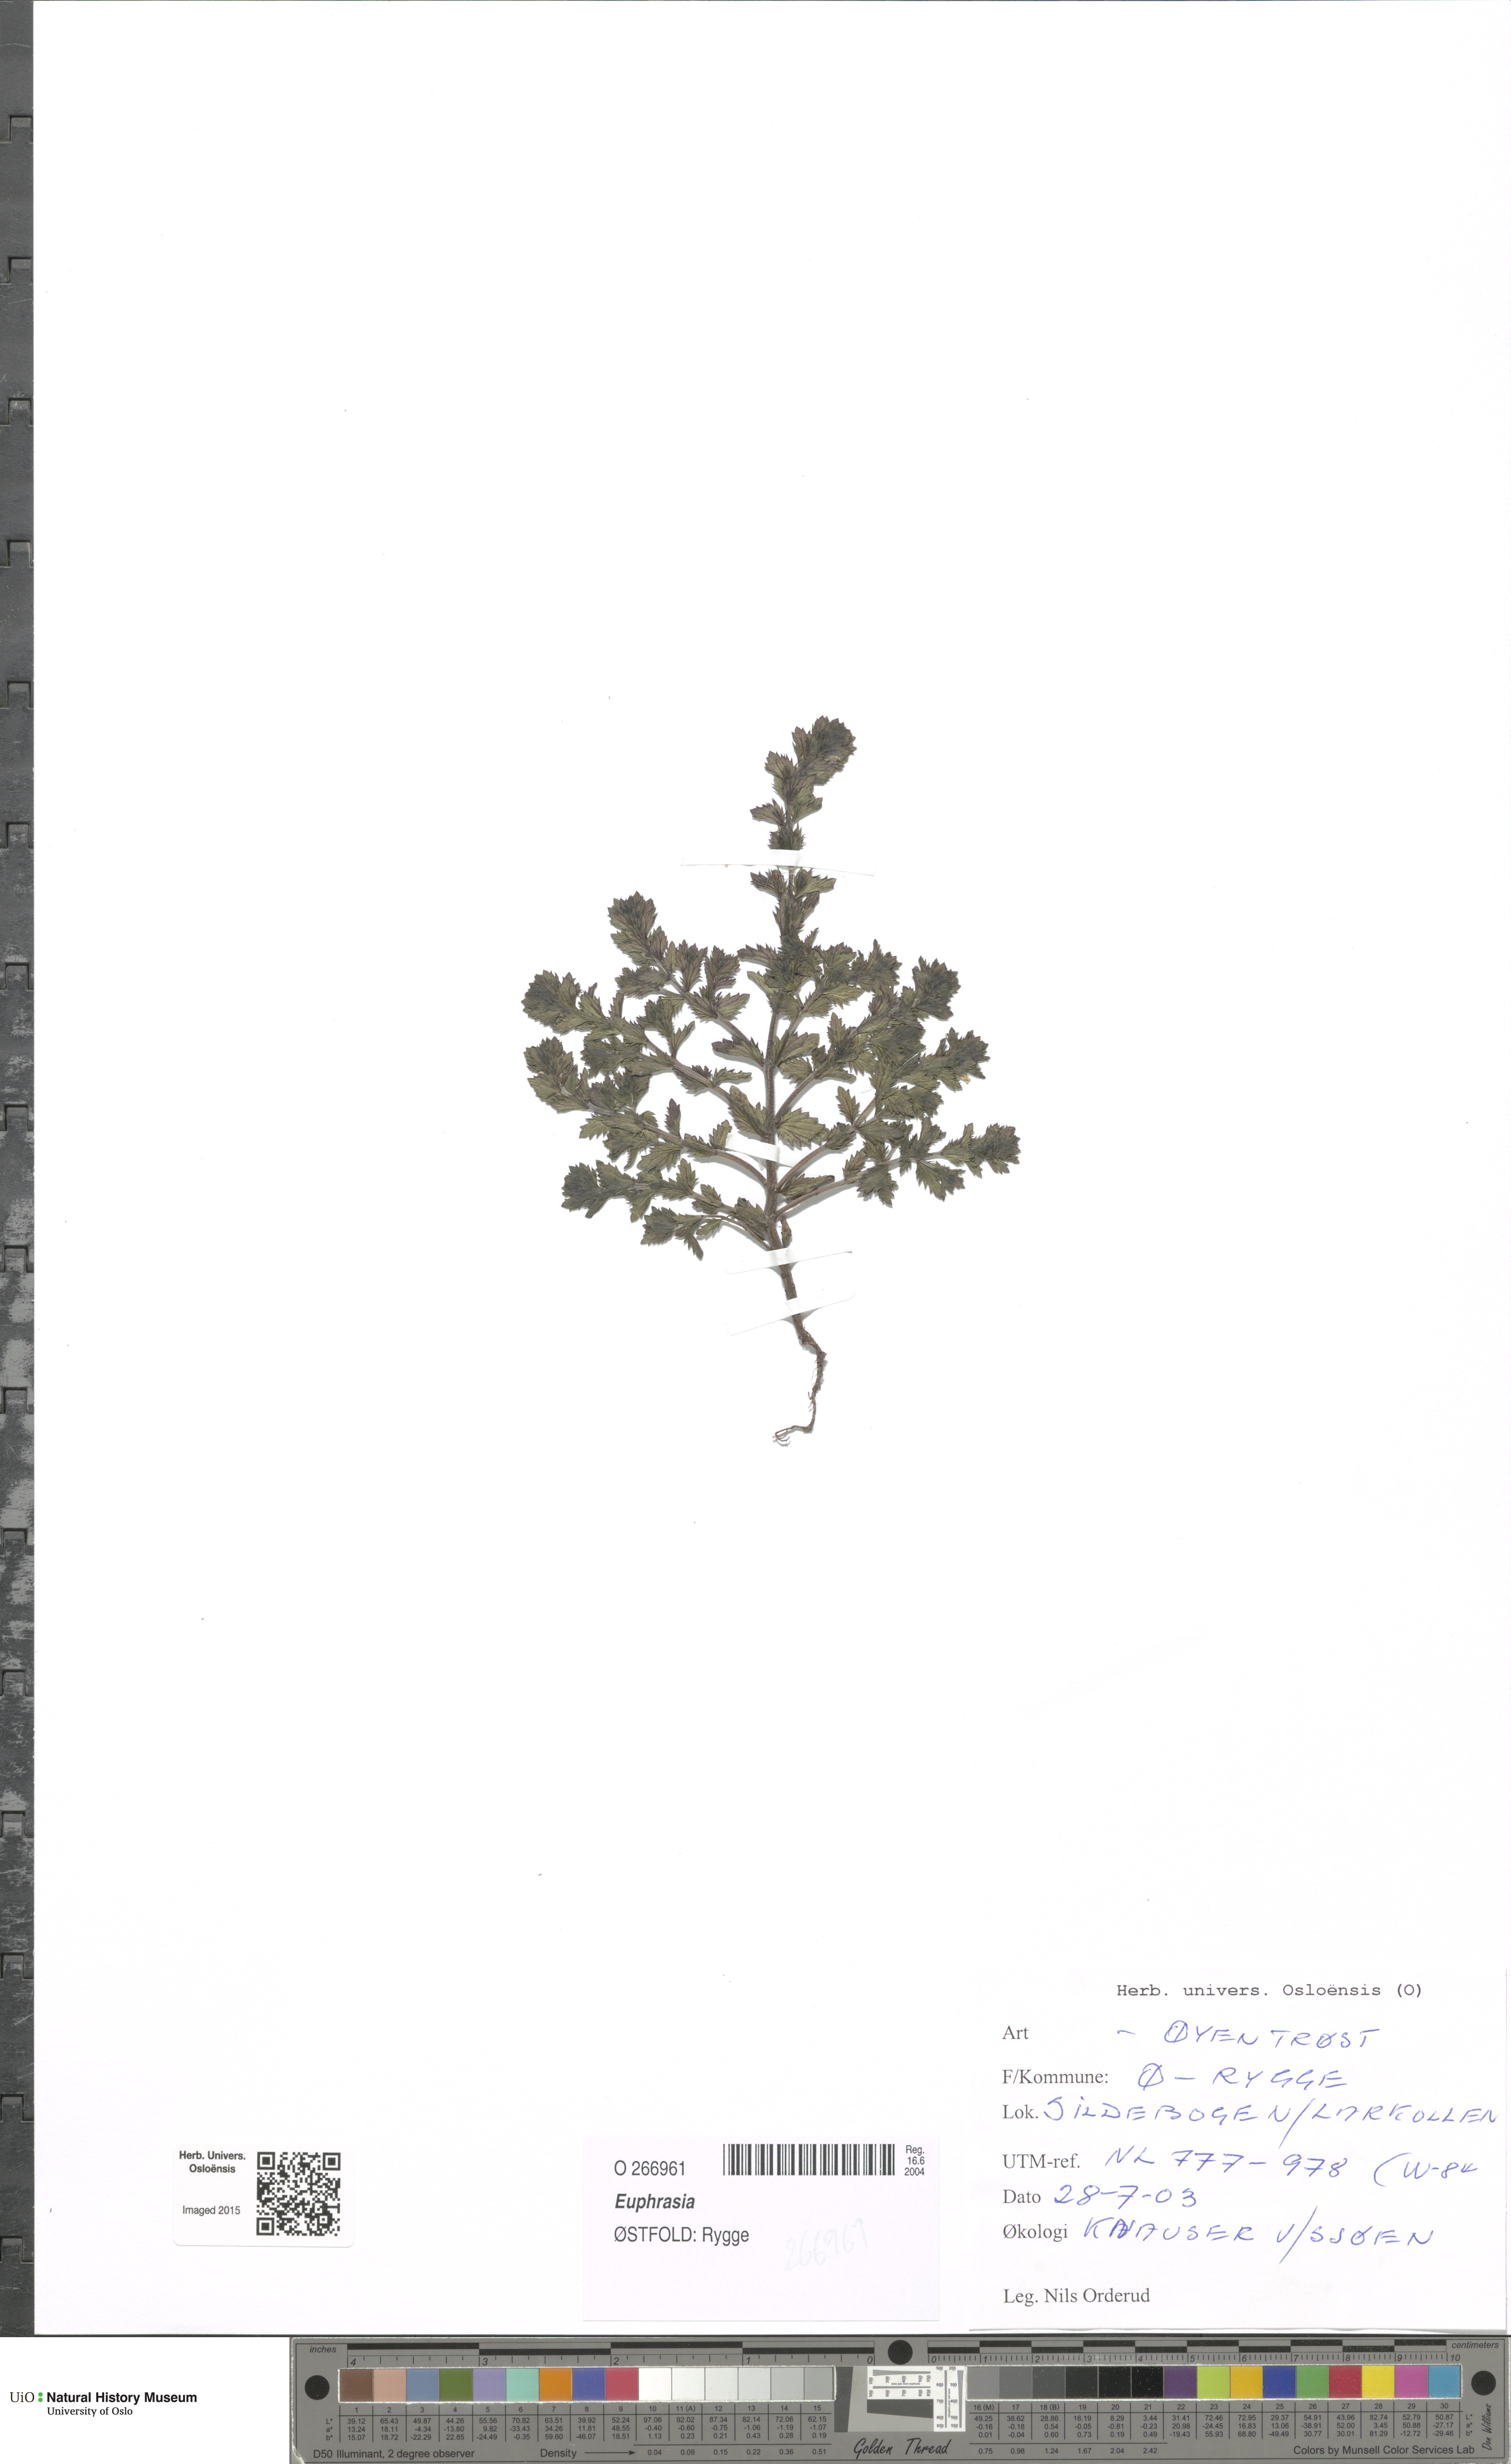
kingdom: Plantae
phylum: Tracheophyta
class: Magnoliopsida
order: Lamiales
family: Orobanchaceae
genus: Euphrasia
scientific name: Euphrasia
